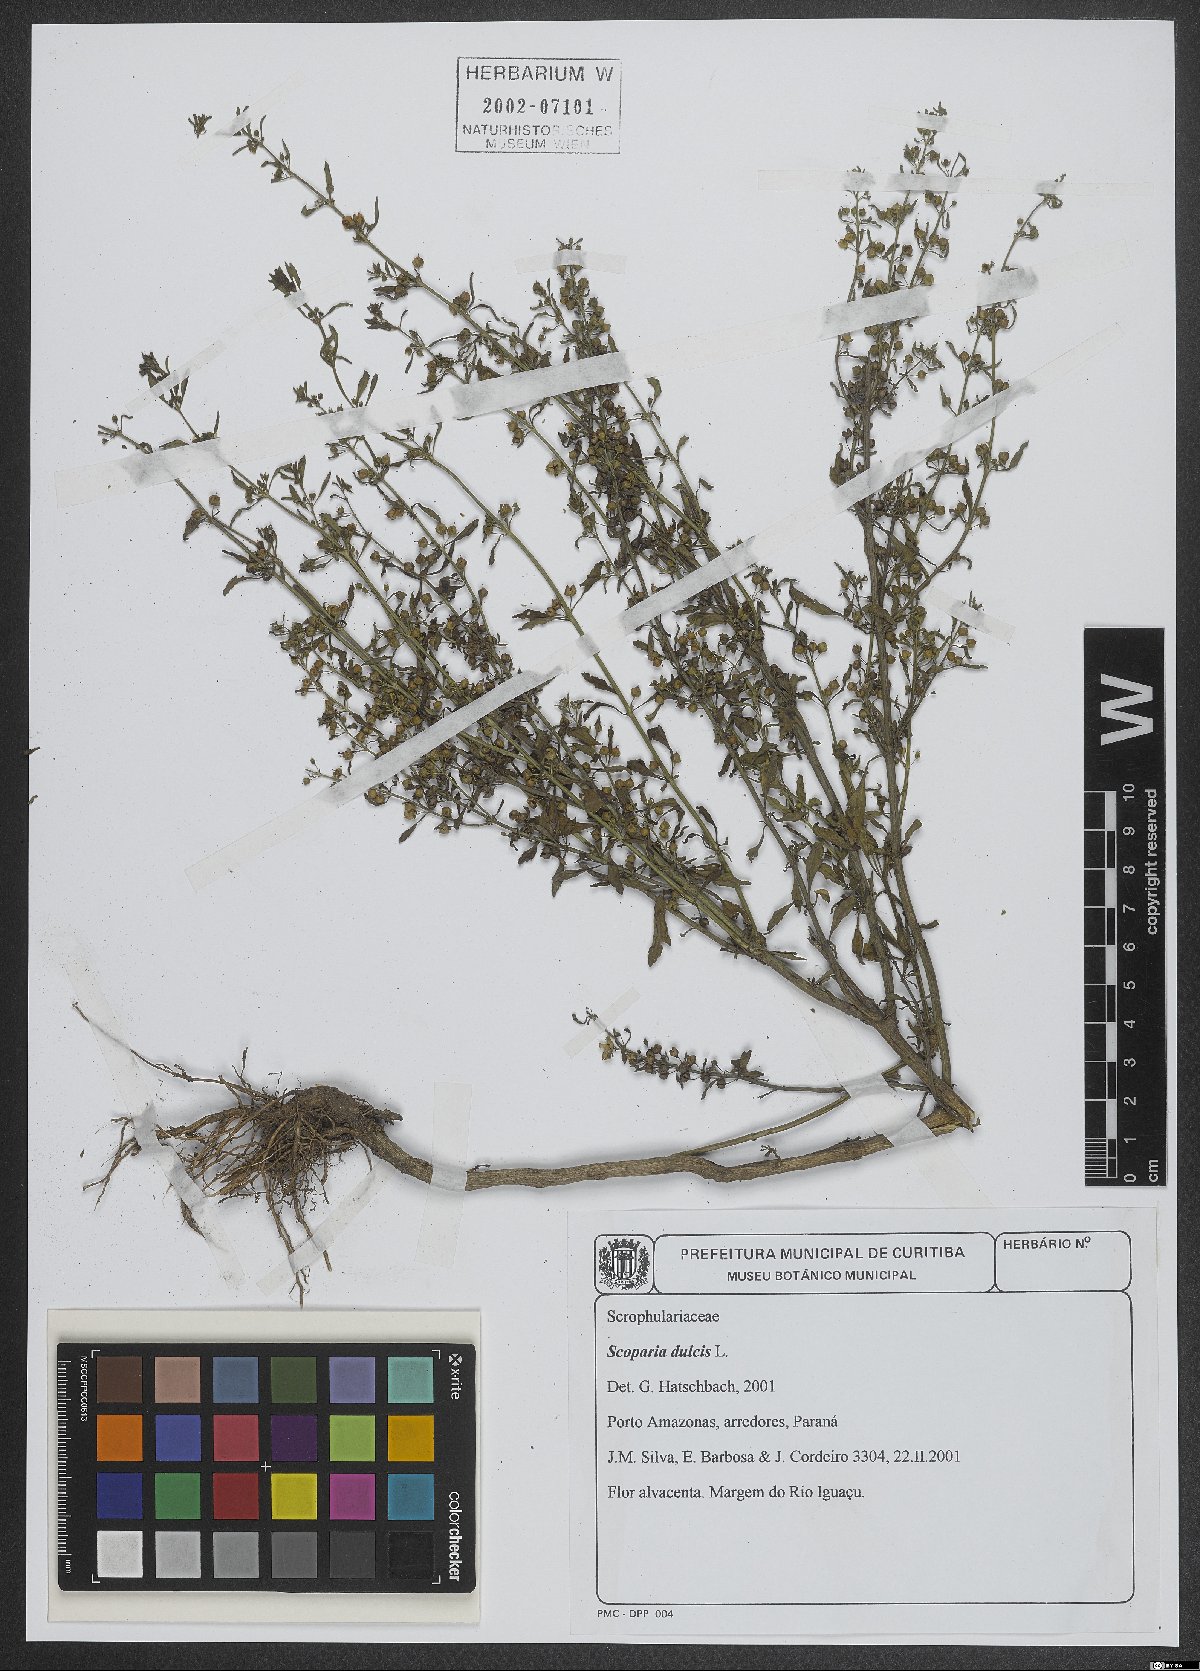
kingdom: Plantae
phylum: Tracheophyta
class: Magnoliopsida
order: Lamiales
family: Plantaginaceae
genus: Scoparia
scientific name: Scoparia dulcis
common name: Scoparia-weed
